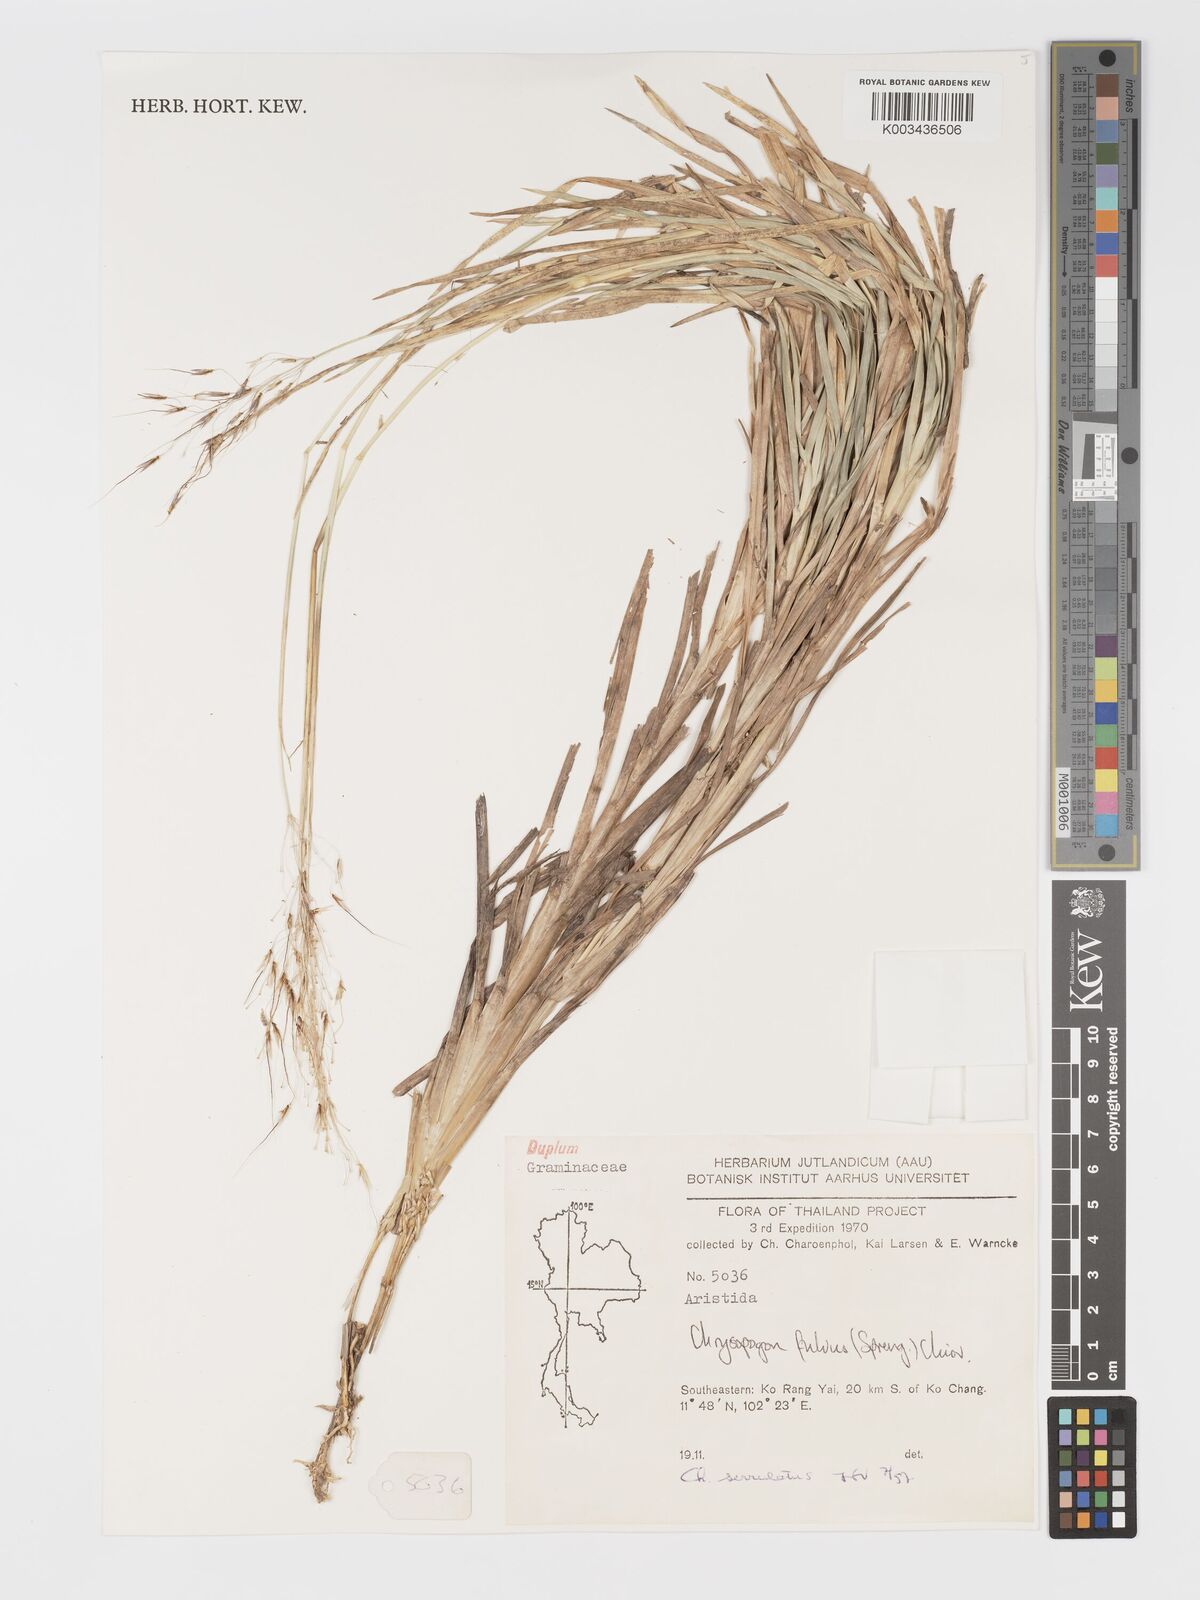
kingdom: Plantae
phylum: Tracheophyta
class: Liliopsida
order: Poales
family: Poaceae
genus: Chrysopogon
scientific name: Chrysopogon serrulatus
